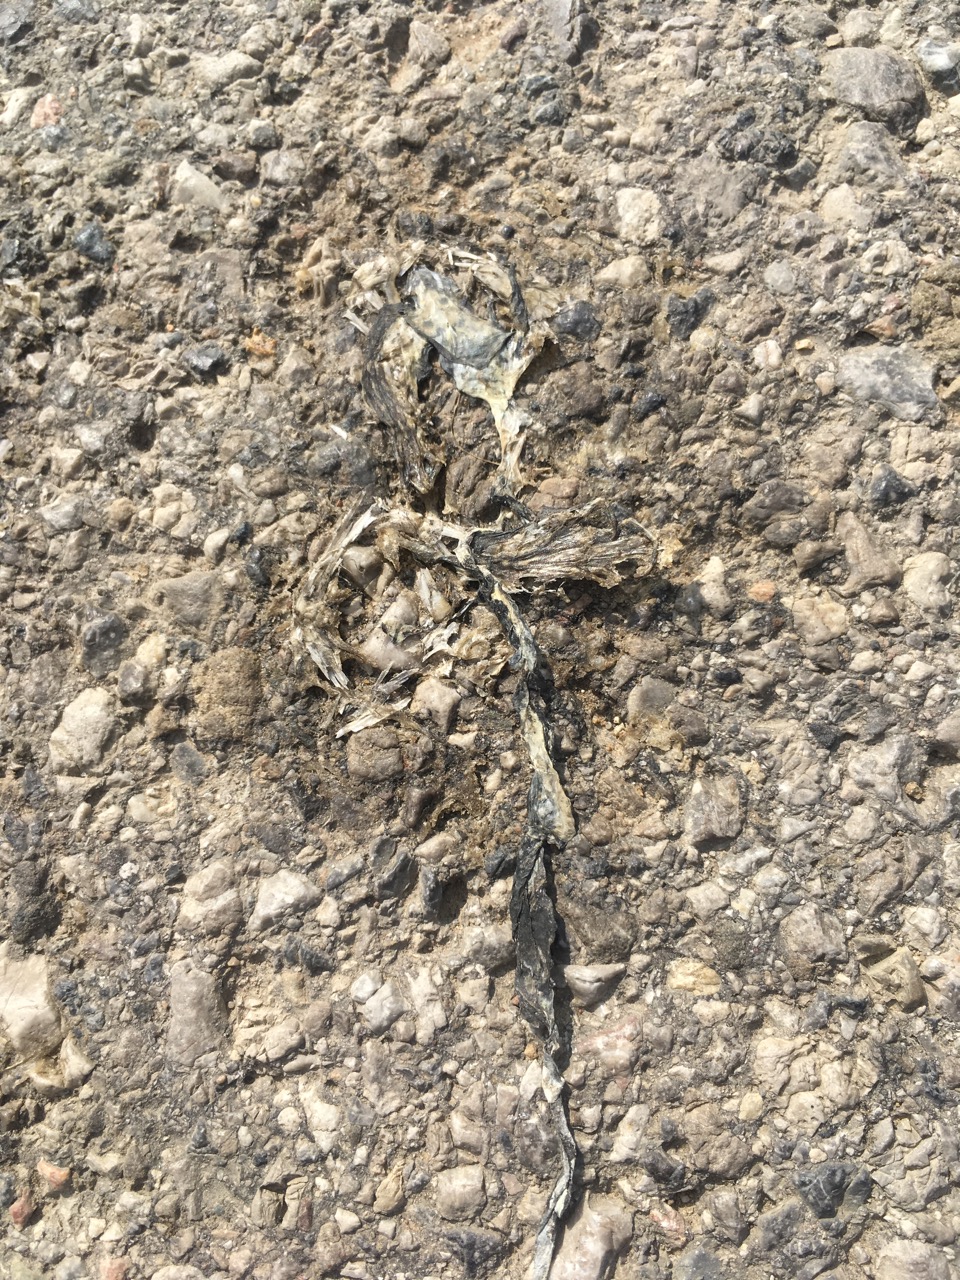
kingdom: Animalia
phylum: Chordata
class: Amphibia
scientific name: Amphibia
